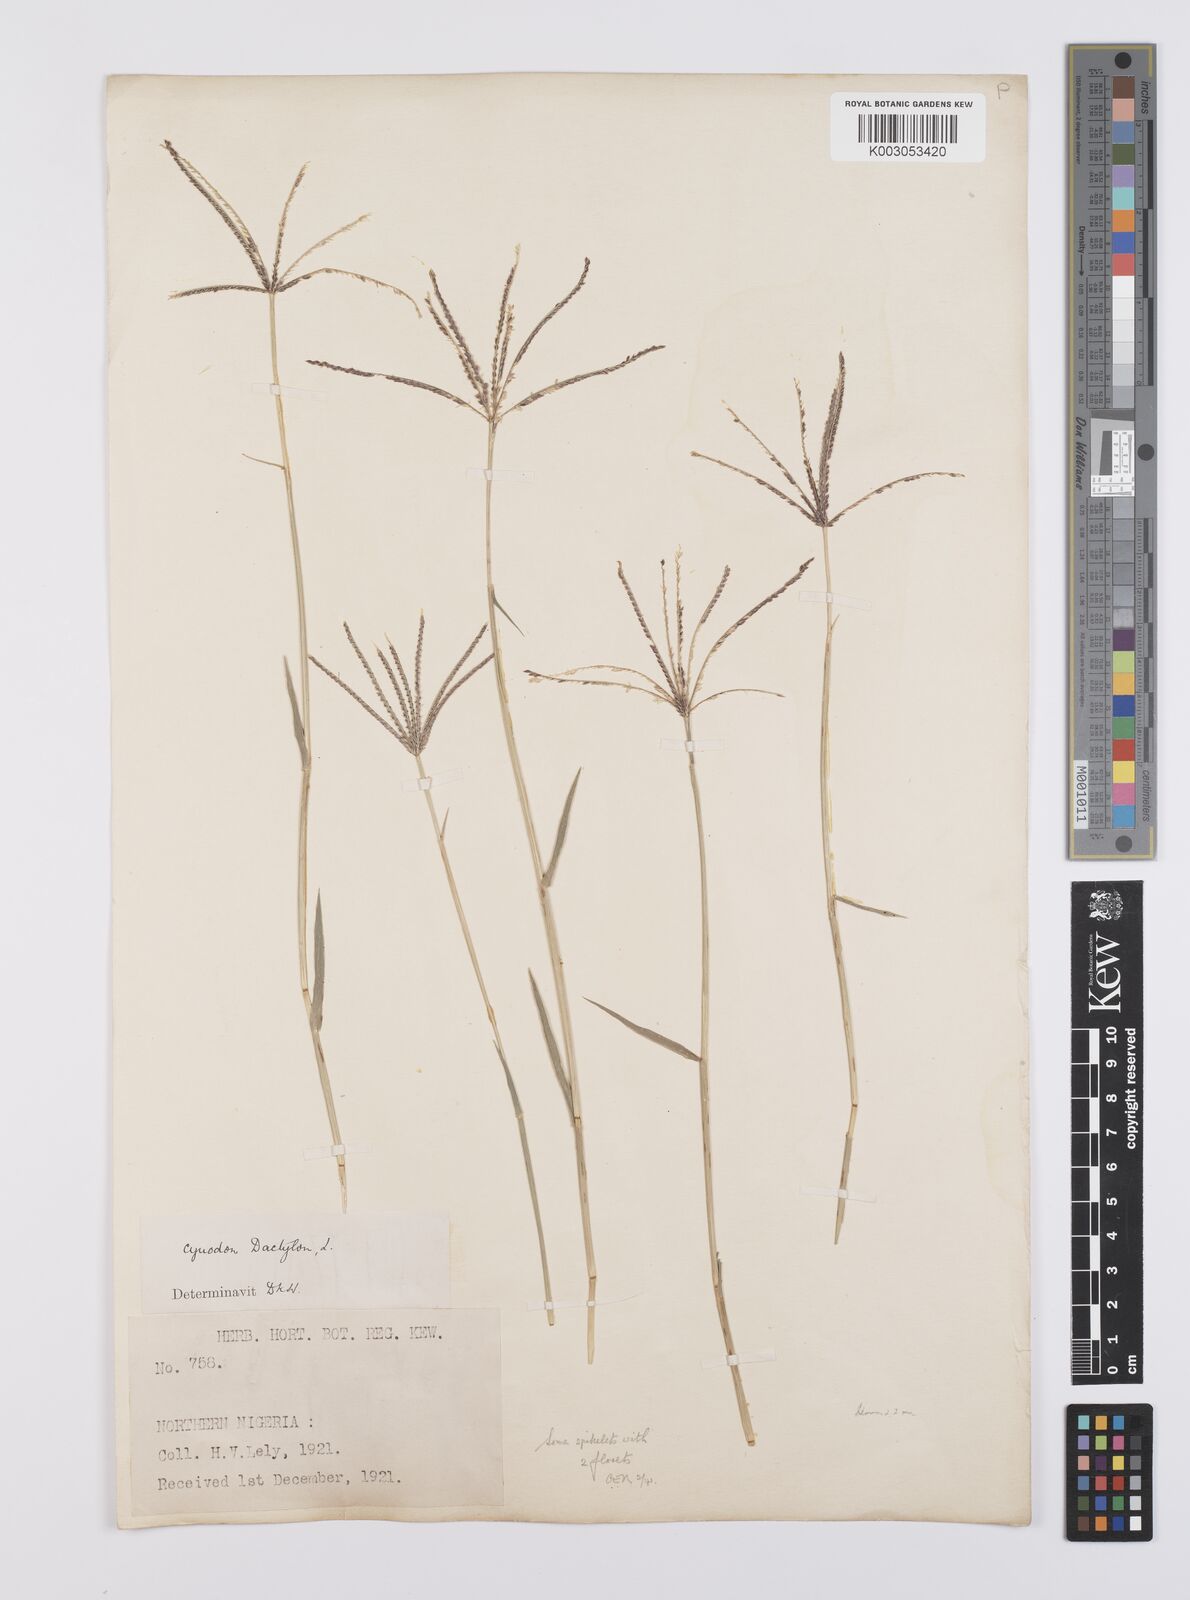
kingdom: Plantae
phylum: Tracheophyta
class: Liliopsida
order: Poales
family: Poaceae
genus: Cynodon
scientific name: Cynodon dactylon
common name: Bermuda grass
